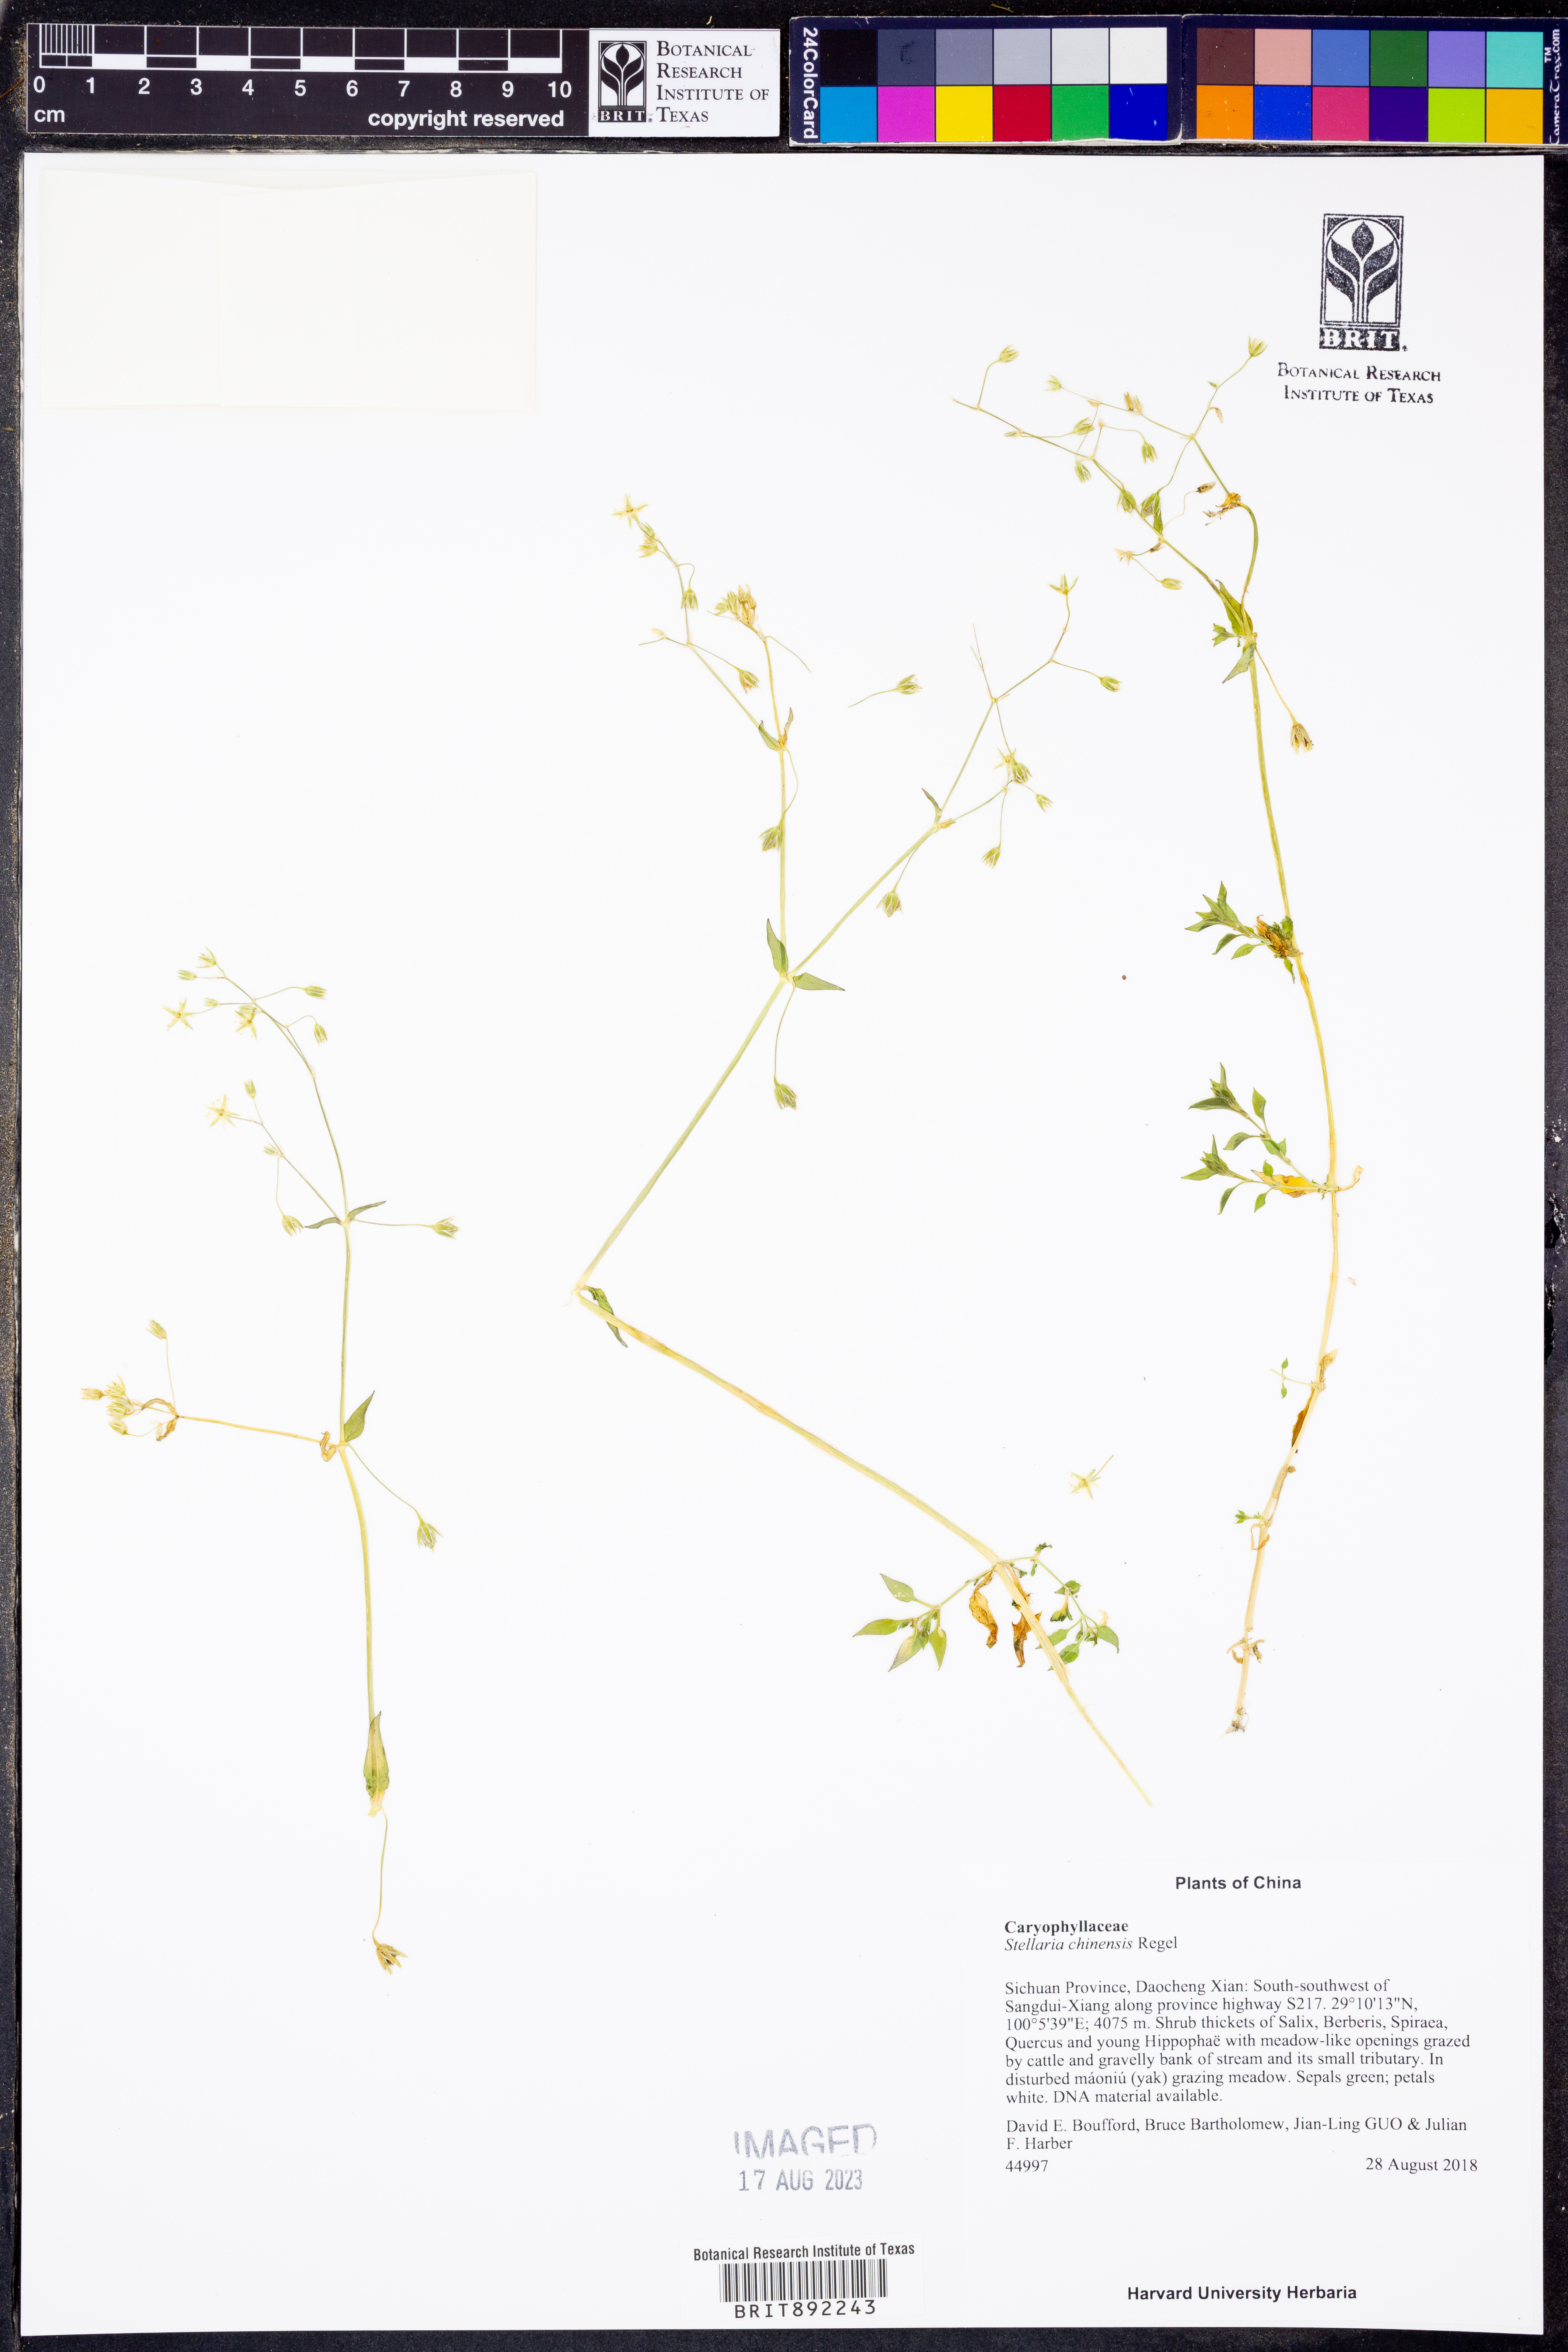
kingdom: Plantae
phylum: Tracheophyta
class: Magnoliopsida
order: Caryophyllales
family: Caryophyllaceae
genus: Stellaria
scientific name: Stellaria chinensis
